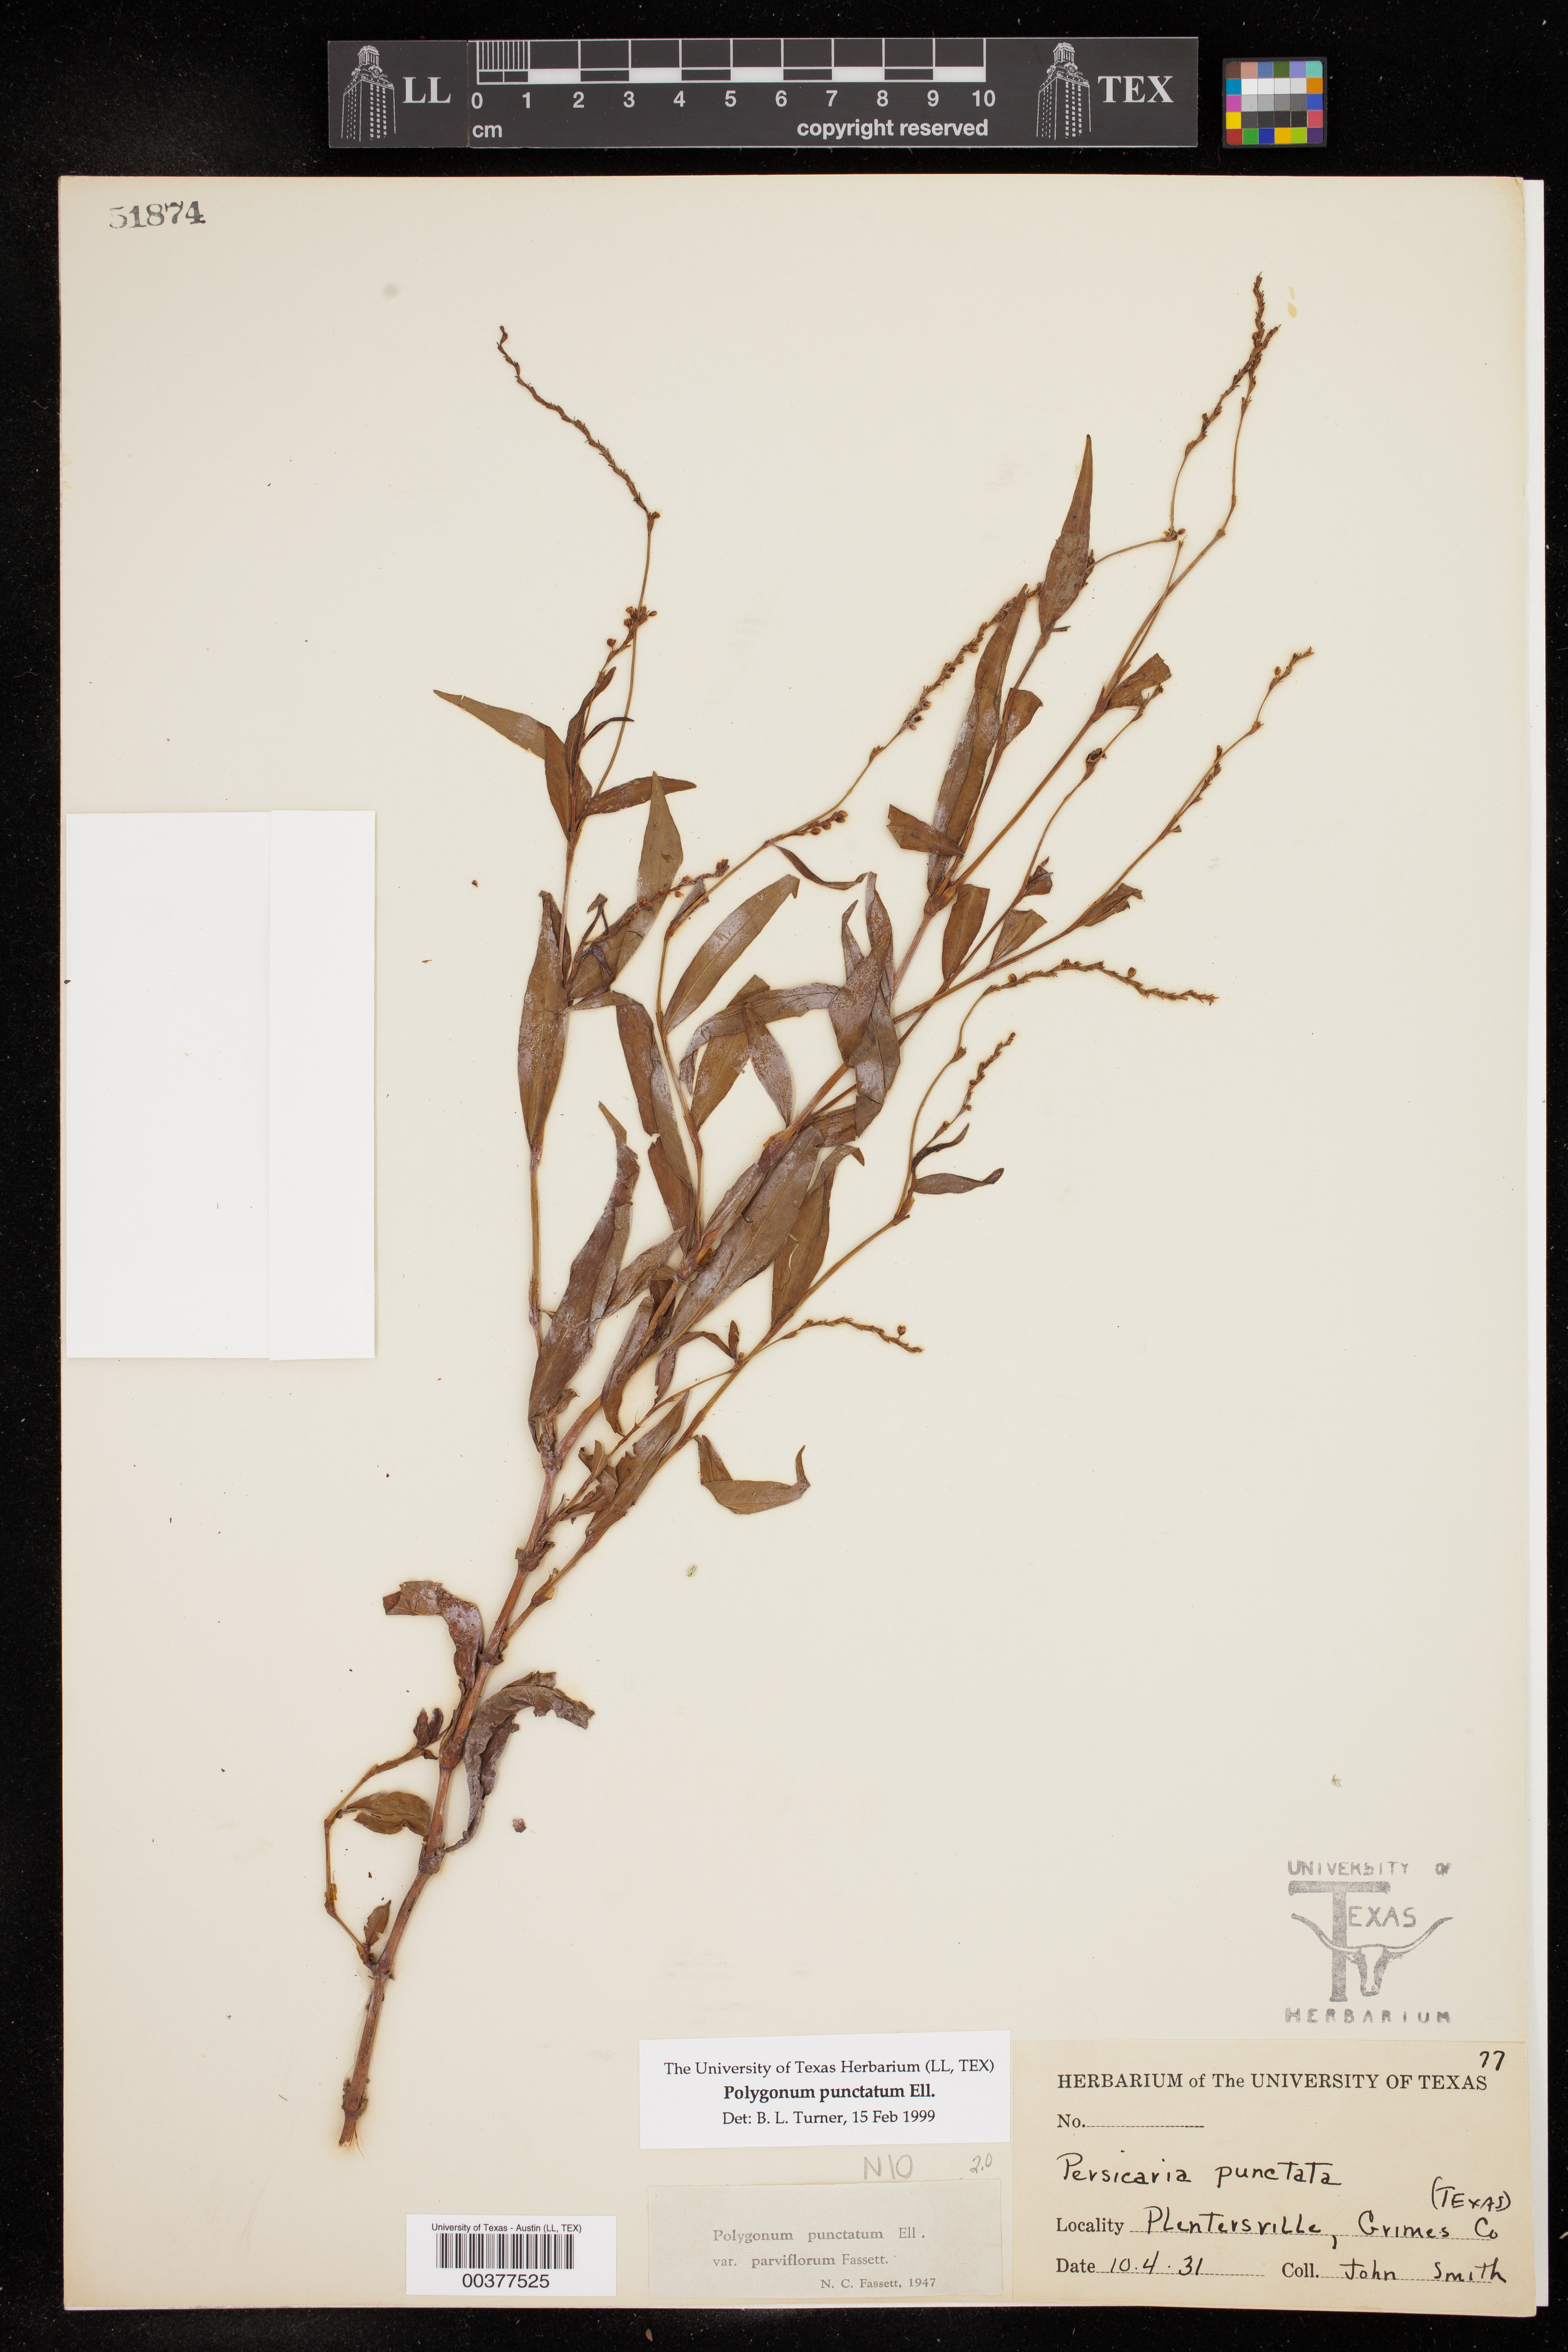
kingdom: Plantae
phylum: Tracheophyta
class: Magnoliopsida
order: Caryophyllales
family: Polygonaceae
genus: Persicaria
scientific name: Persicaria punctata
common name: Dotted smartweed
